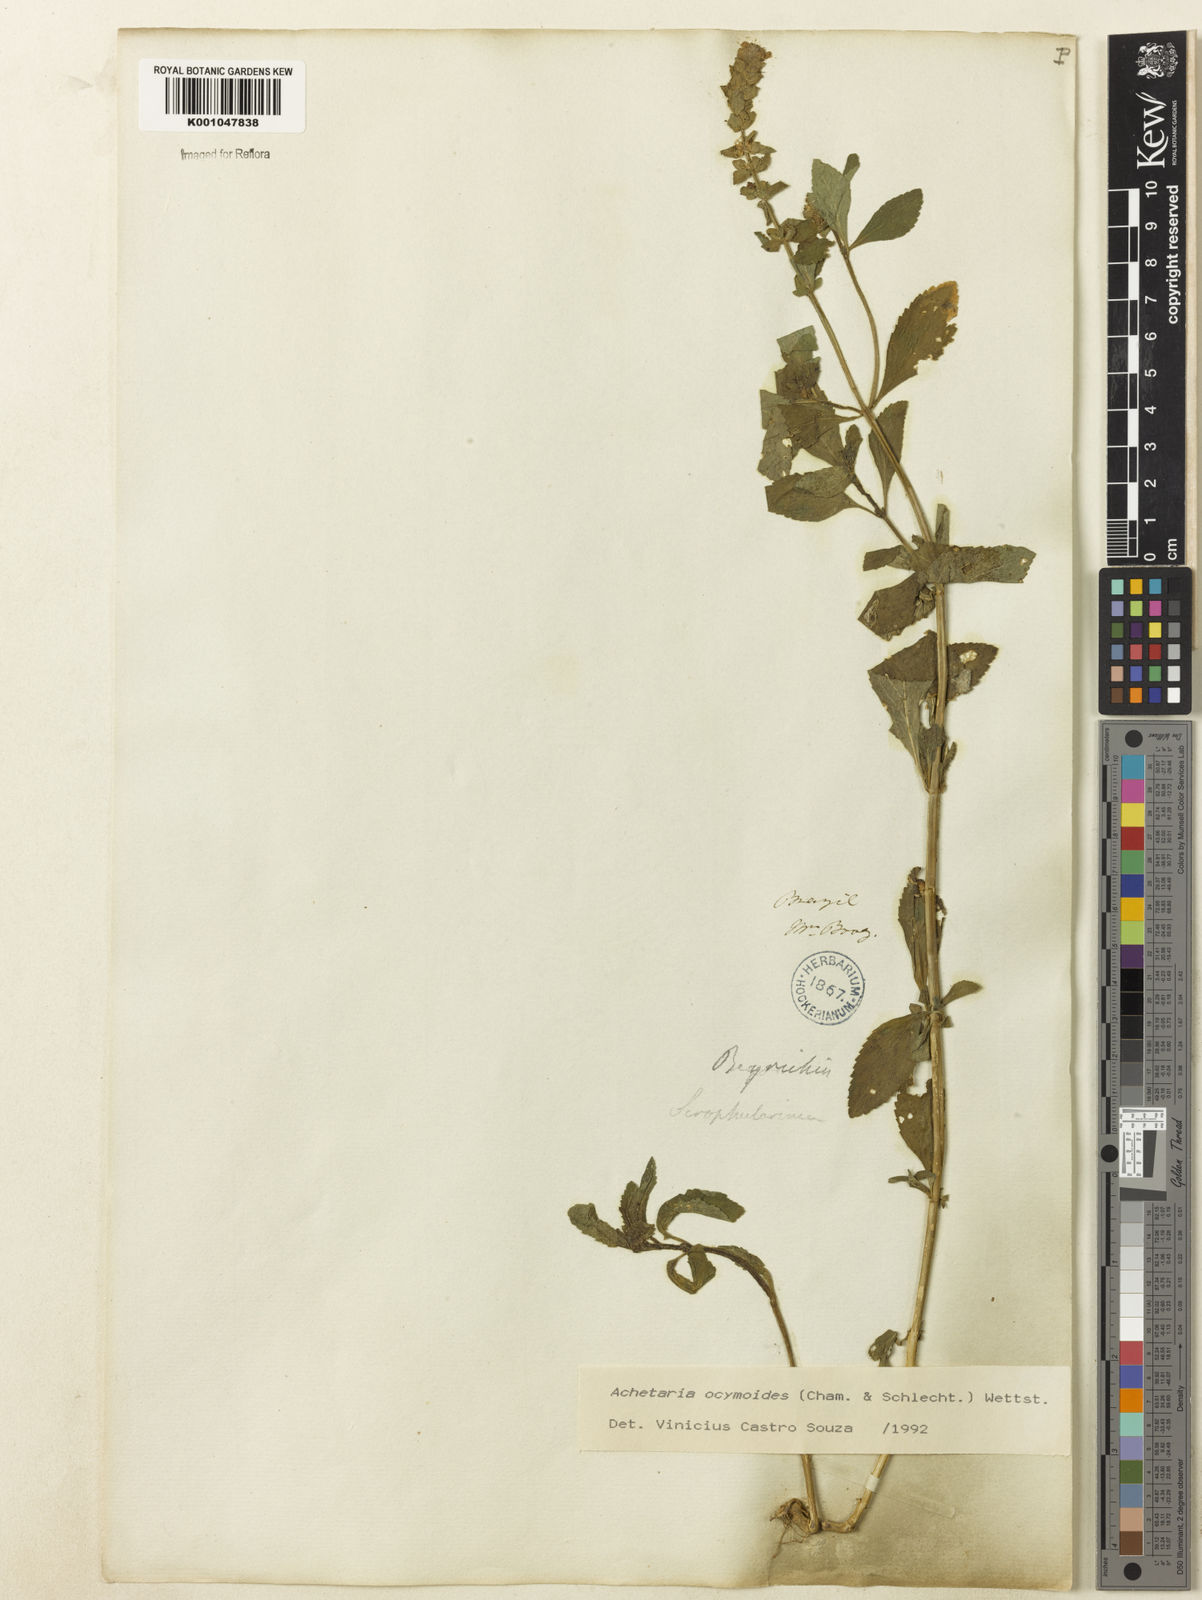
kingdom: Plantae
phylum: Tracheophyta
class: Magnoliopsida
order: Lamiales
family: Plantaginaceae
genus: Matourea
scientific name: Matourea ocymoides
